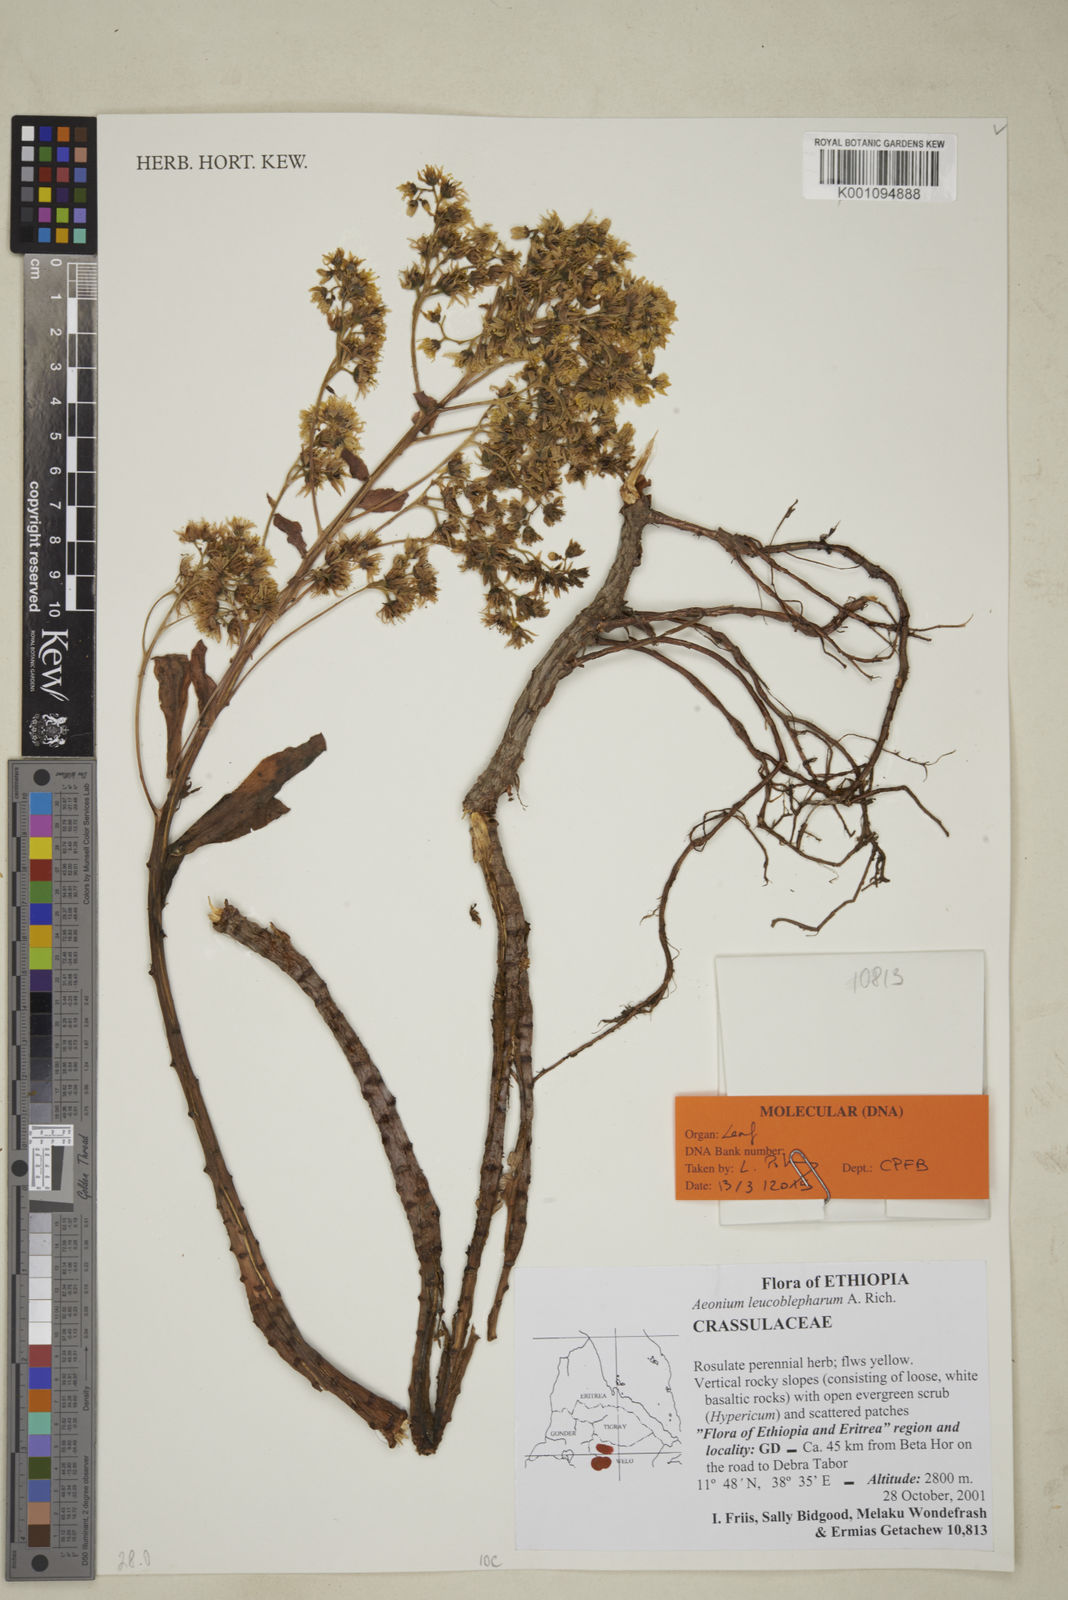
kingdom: Plantae
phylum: Tracheophyta
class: Magnoliopsida
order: Saxifragales
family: Crassulaceae
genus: Aeonium
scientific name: Aeonium leucoblepharum
